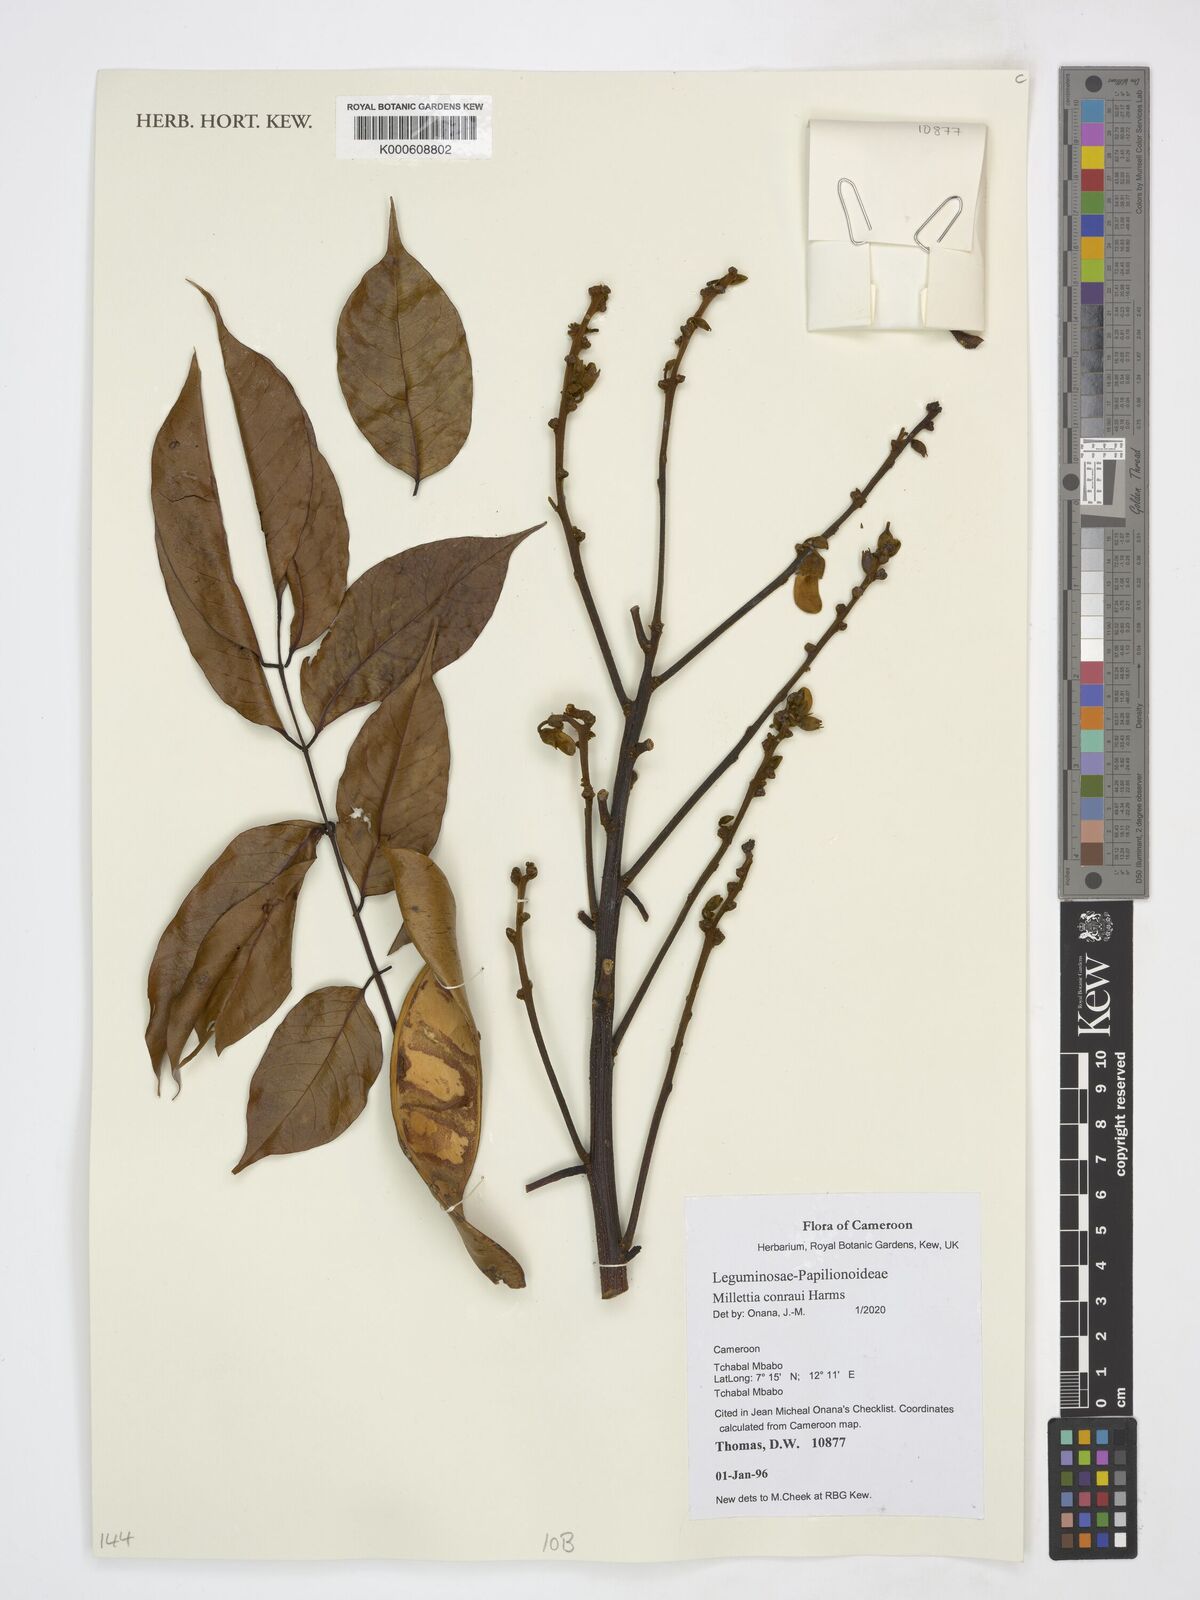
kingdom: Plantae
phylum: Tracheophyta
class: Magnoliopsida
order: Fabales
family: Fabaceae
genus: Millettia
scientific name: Millettia conraui
